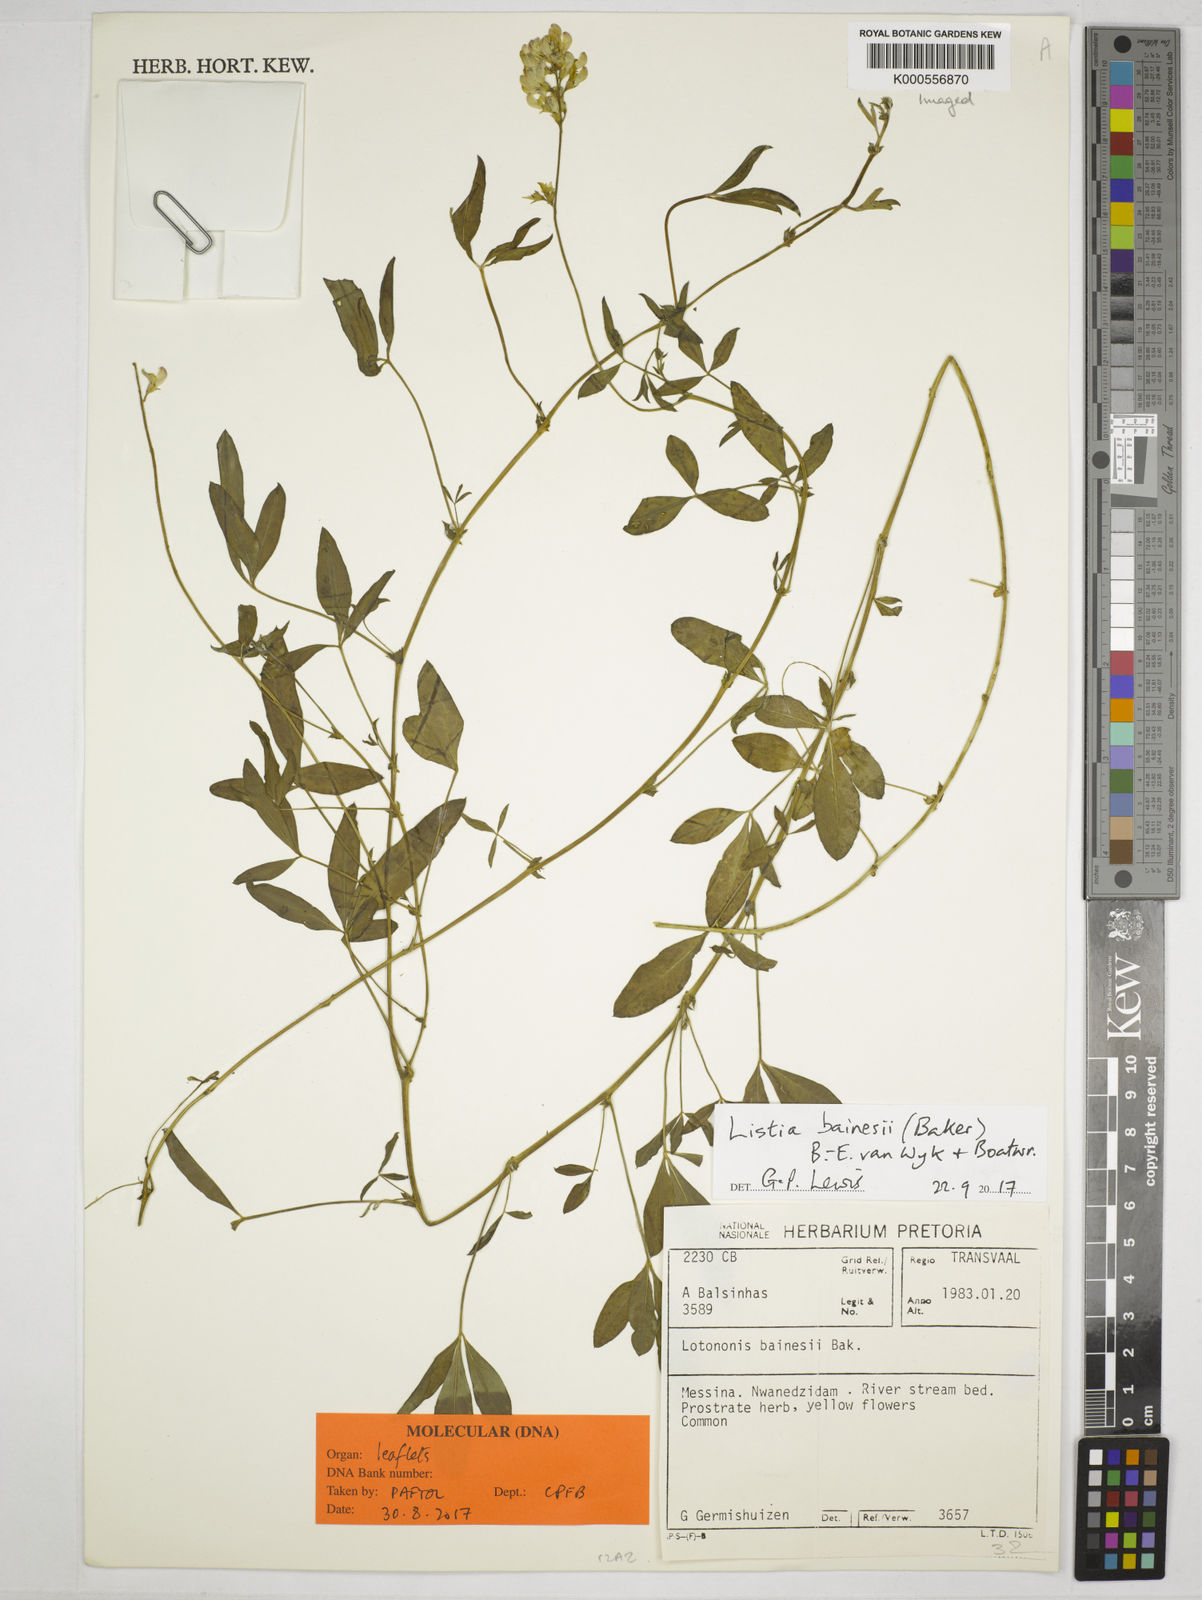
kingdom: Plantae
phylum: Tracheophyta
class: Magnoliopsida
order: Fabales
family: Fabaceae
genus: Listia
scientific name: Listia bainesii
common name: Lotononis
